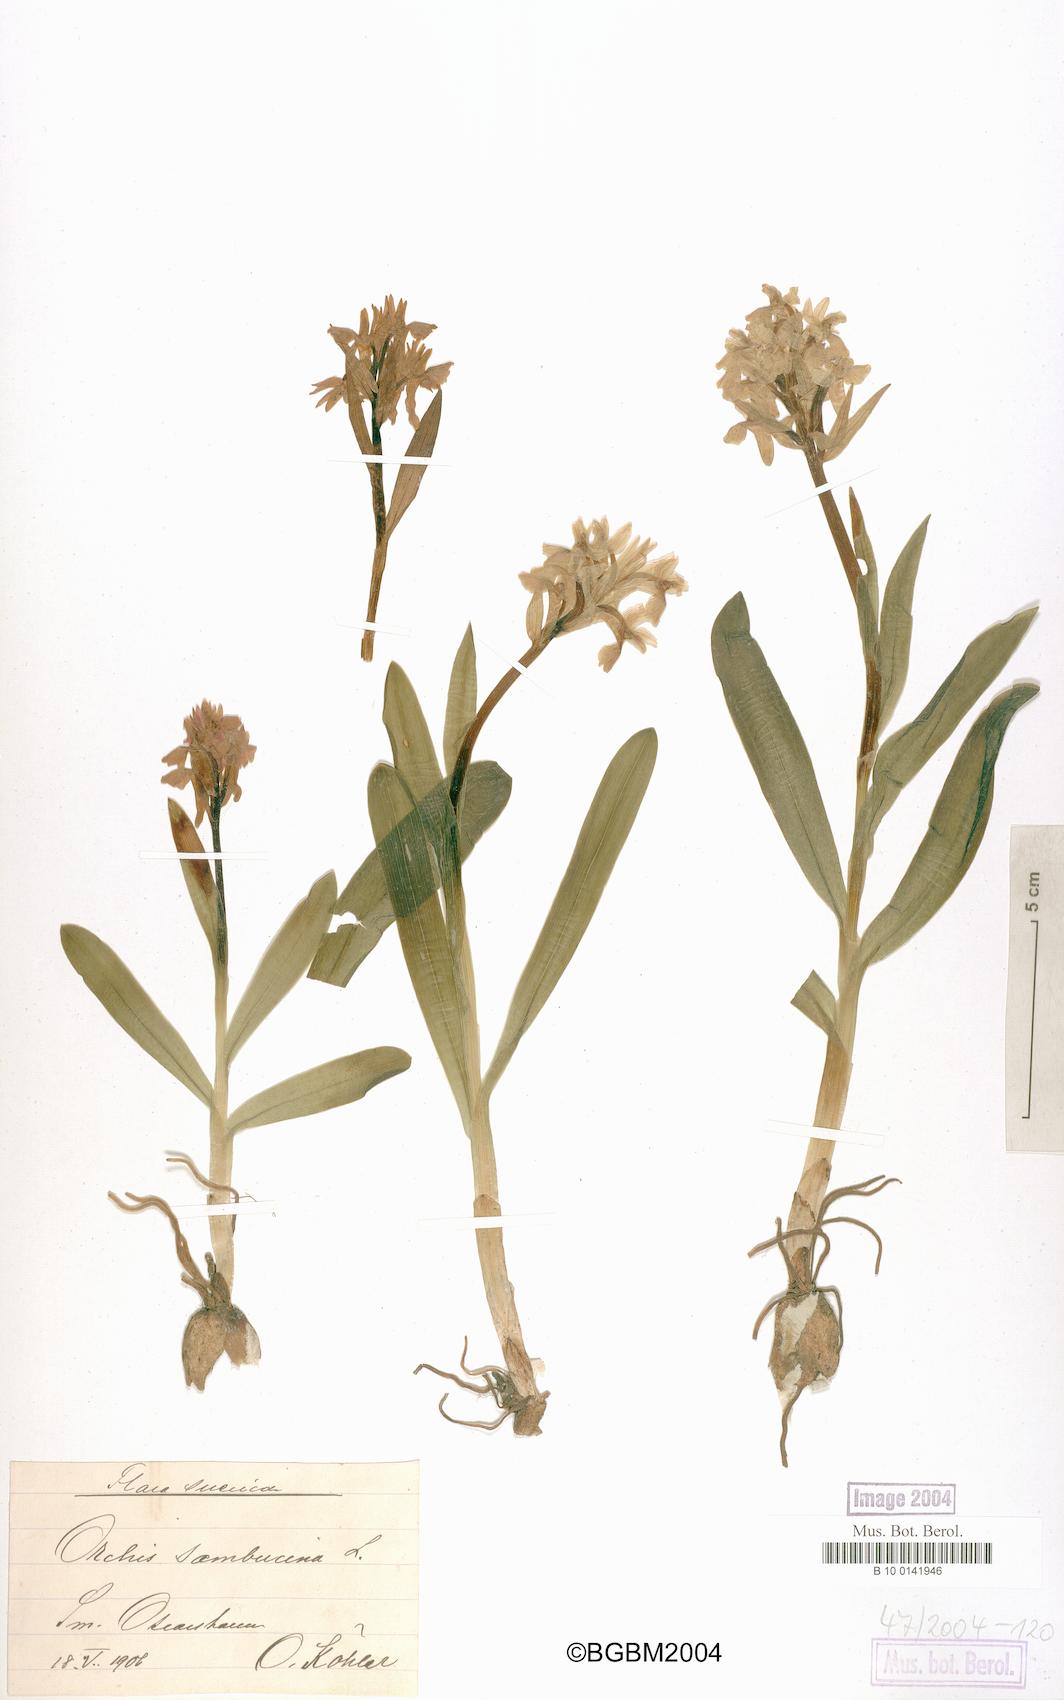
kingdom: Plantae
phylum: Tracheophyta
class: Liliopsida
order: Asparagales
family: Orchidaceae
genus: Dactylorhiza
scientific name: Dactylorhiza sambucina
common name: Elder-flowered orchid
